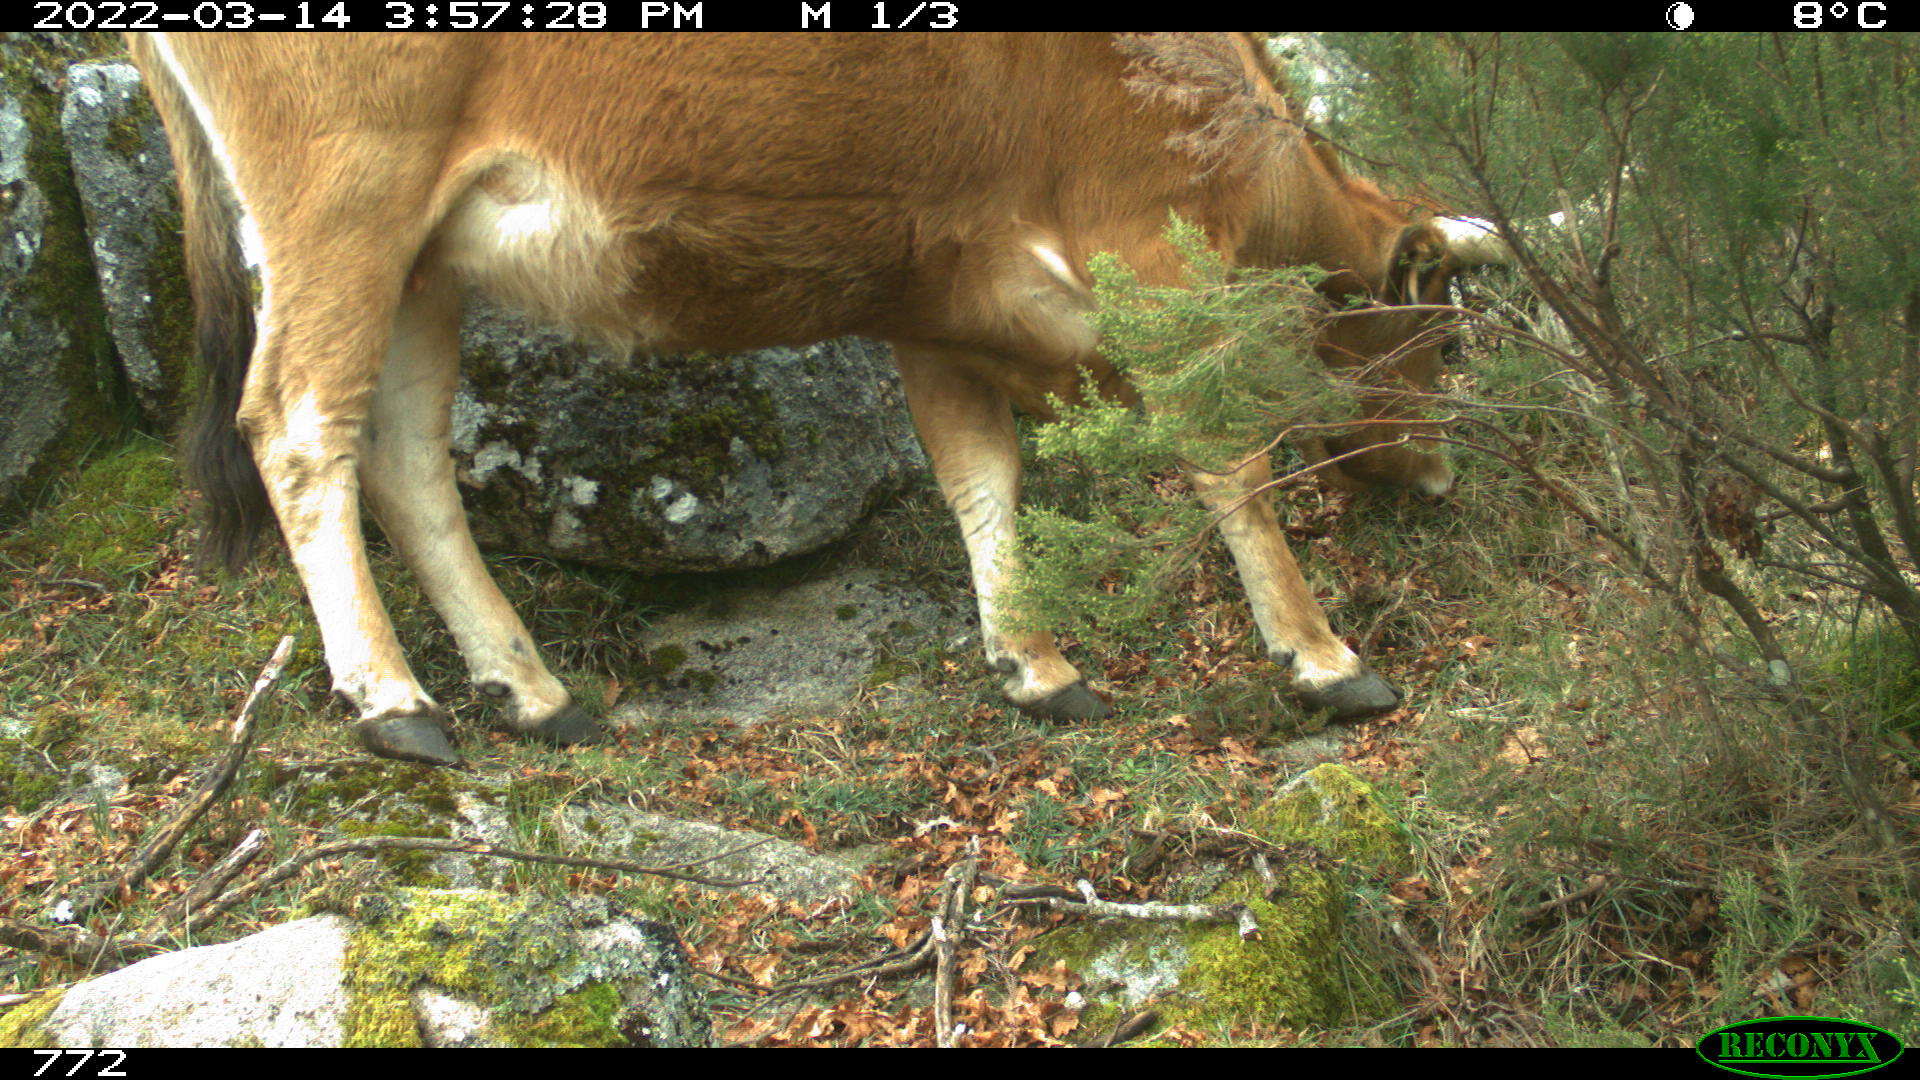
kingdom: Animalia
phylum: Chordata
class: Mammalia
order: Artiodactyla
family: Bovidae
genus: Bos
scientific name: Bos taurus
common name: Domesticated cattle
